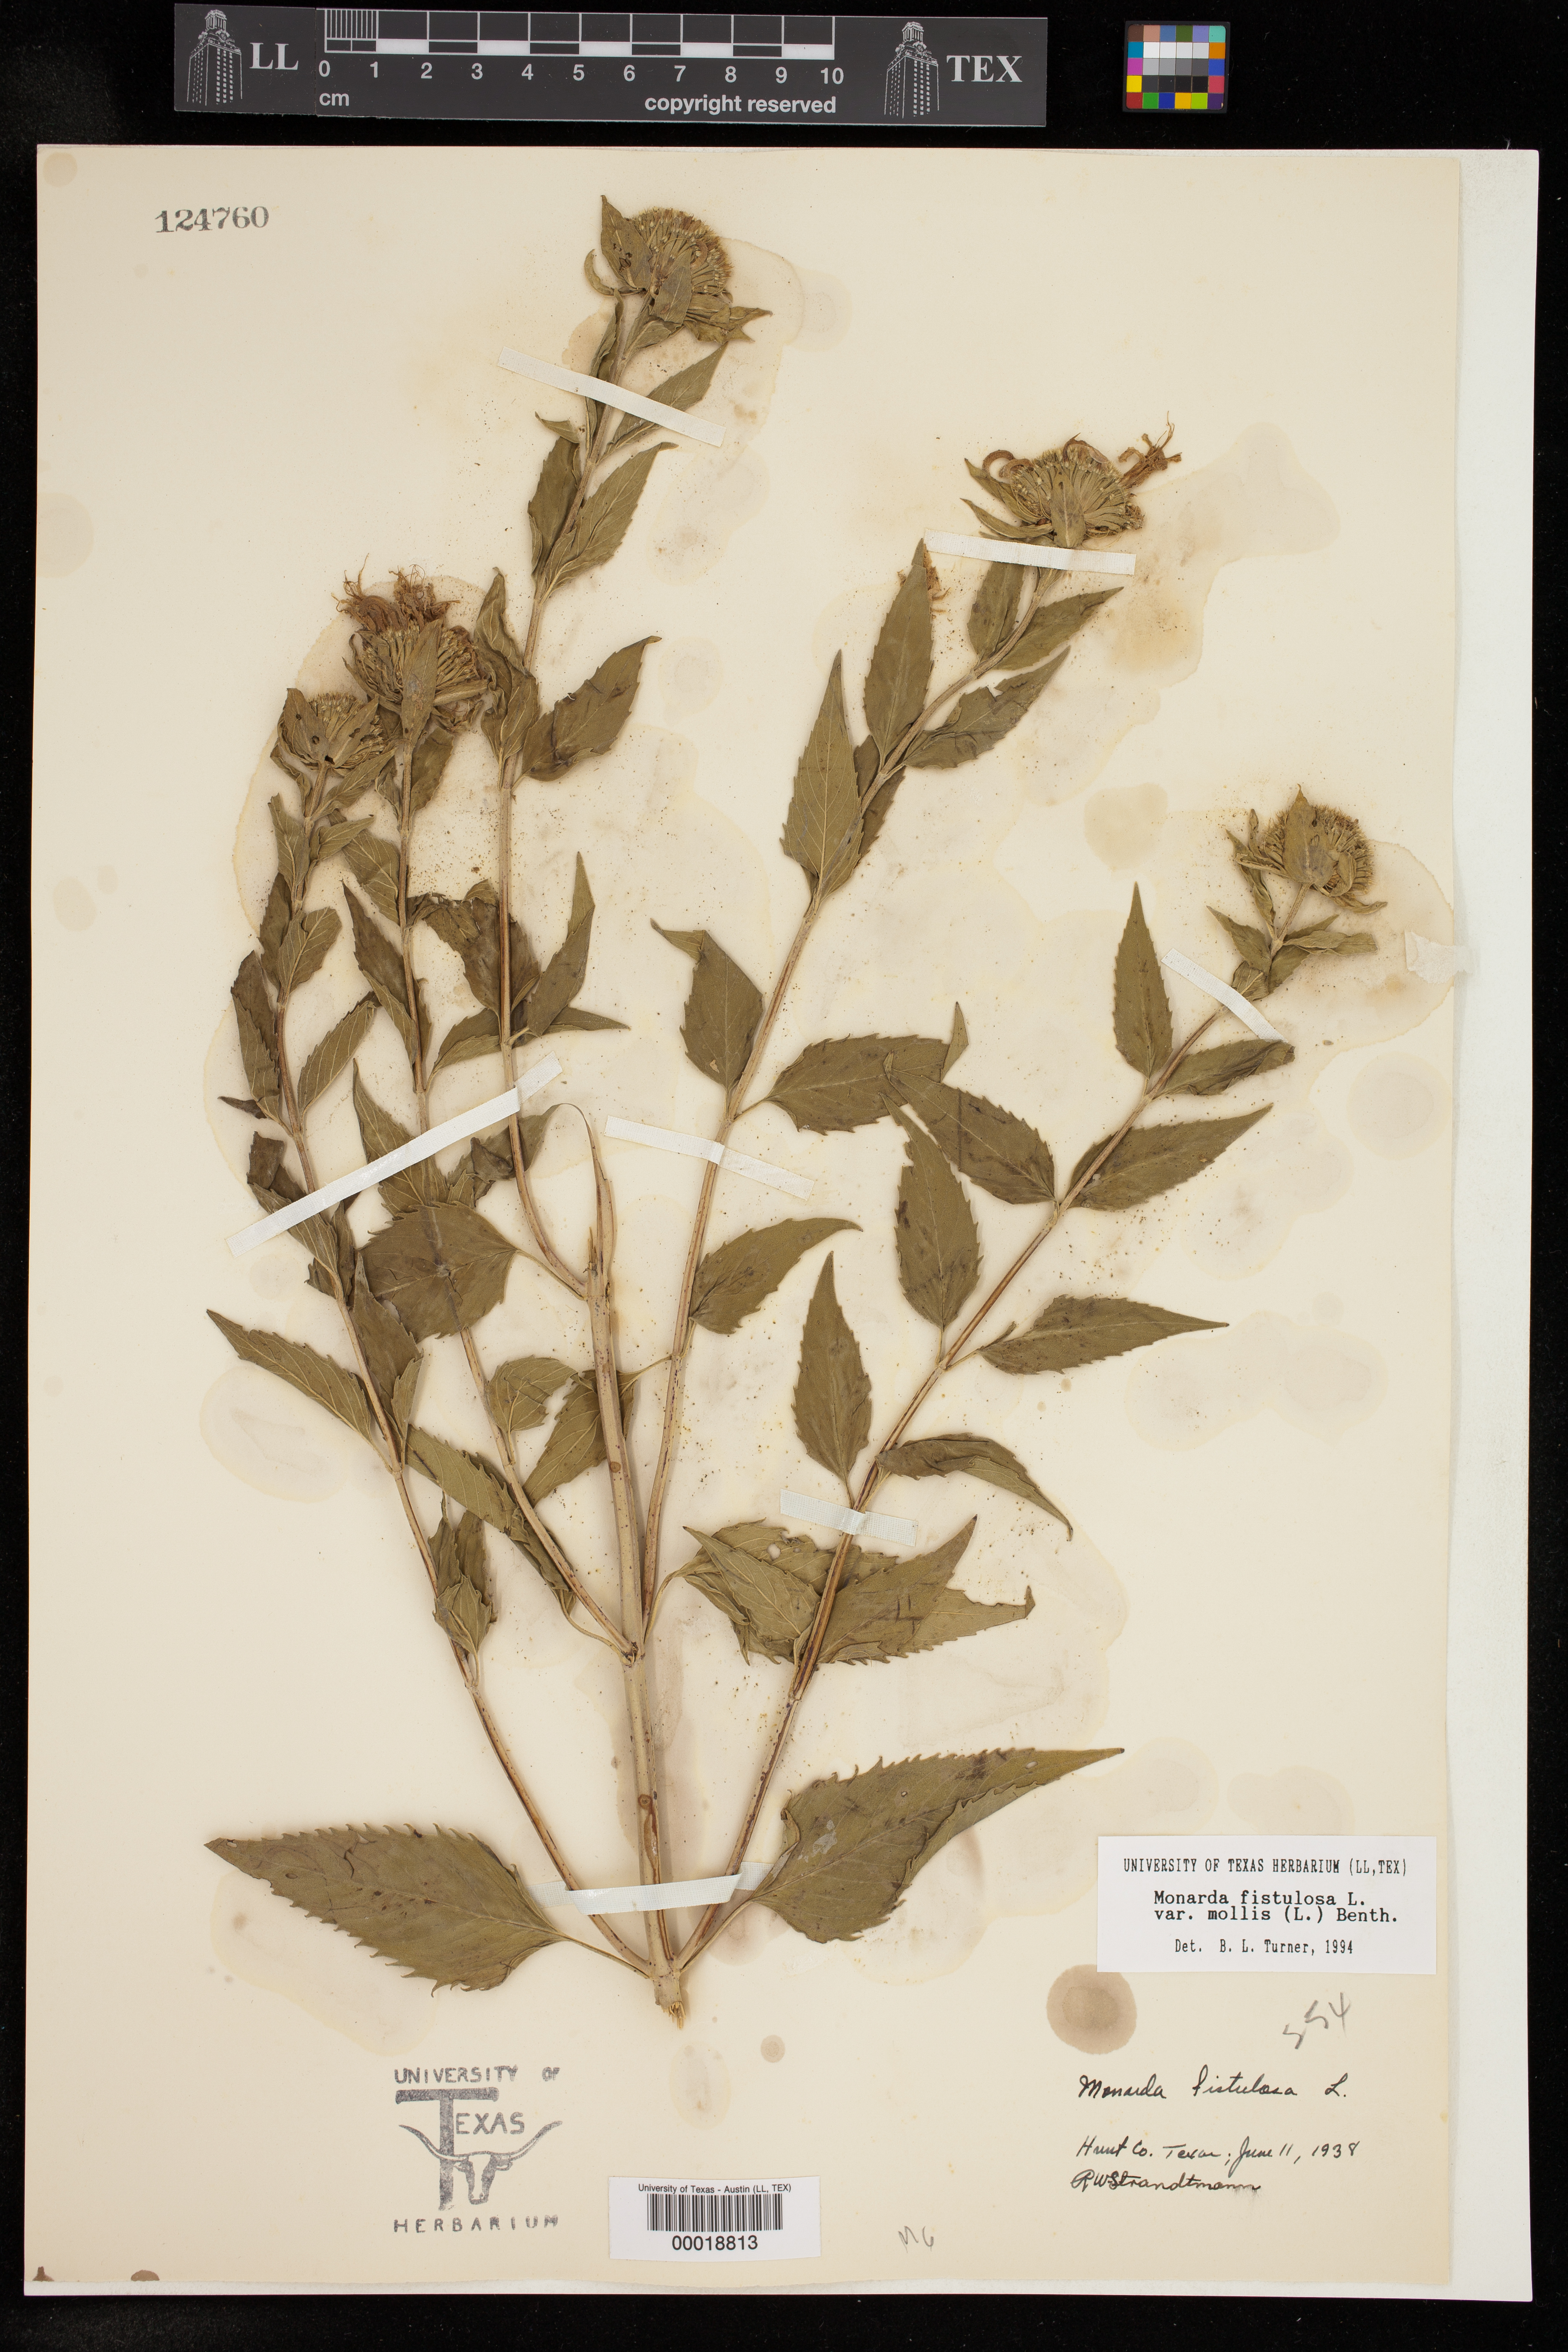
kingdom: Plantae
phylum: Tracheophyta
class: Magnoliopsida
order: Lamiales
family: Lamiaceae
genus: Monarda
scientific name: Monarda fistulosa
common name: Purple beebalm
